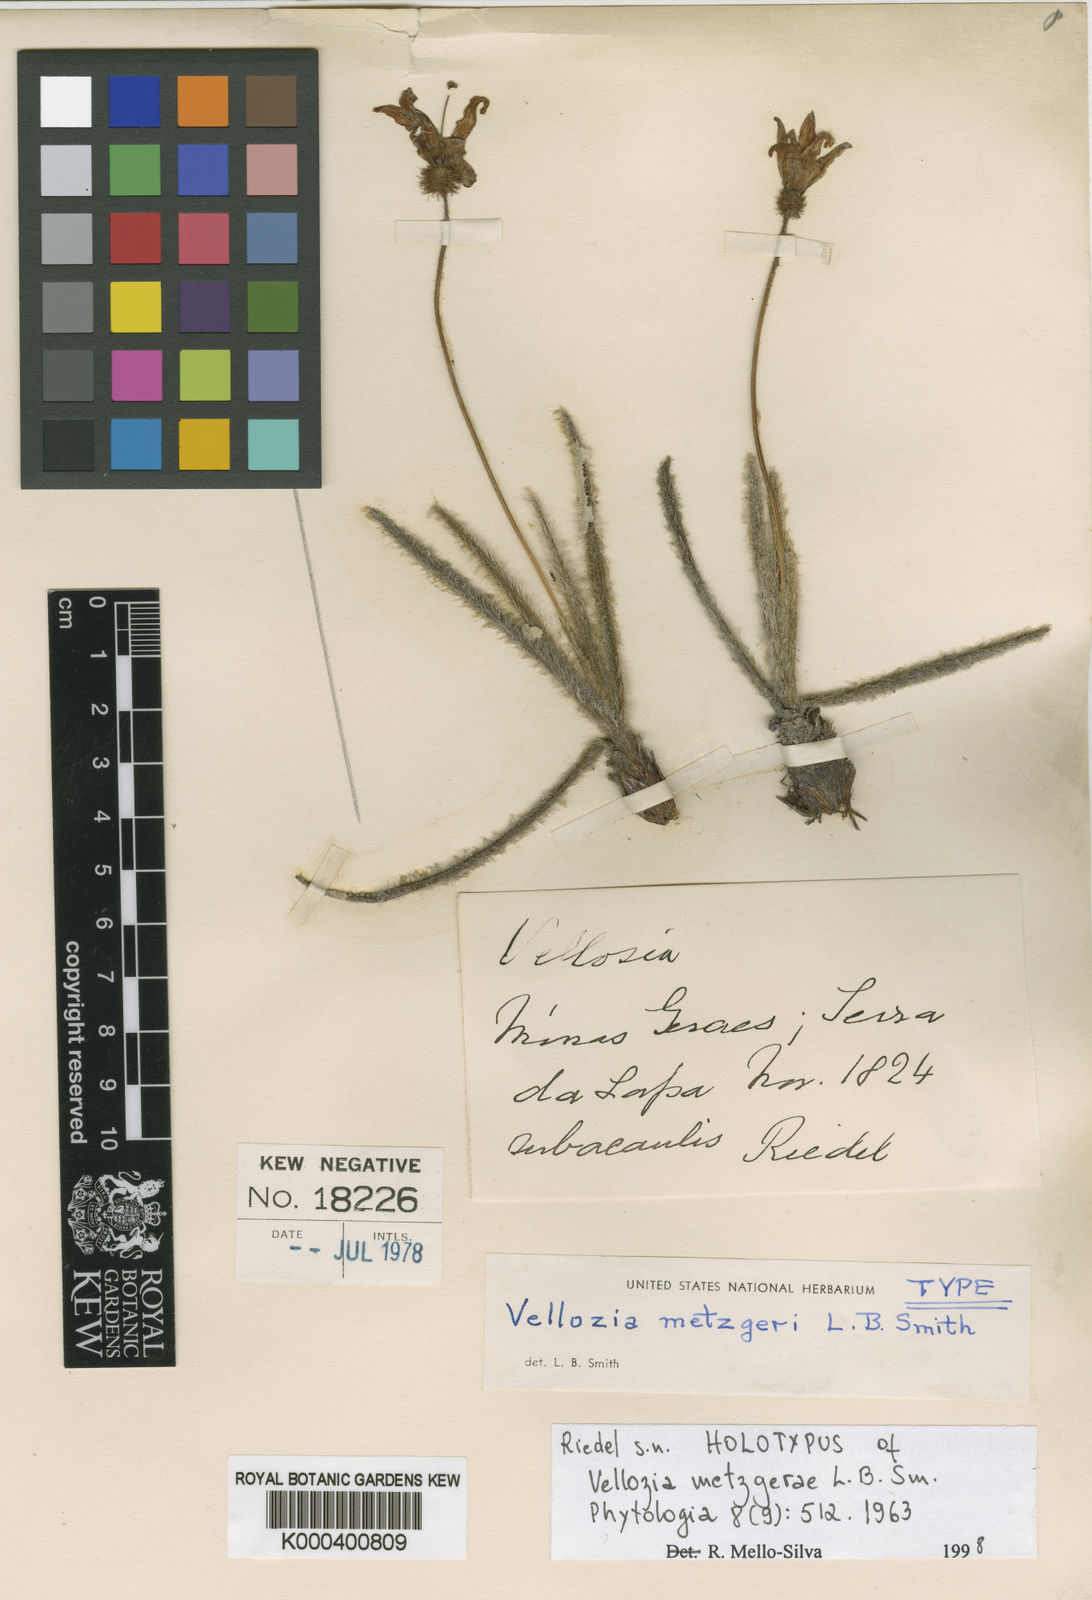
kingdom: Plantae
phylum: Tracheophyta
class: Liliopsida
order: Pandanales
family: Velloziaceae
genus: Vellozia
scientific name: Vellozia metzgerae
